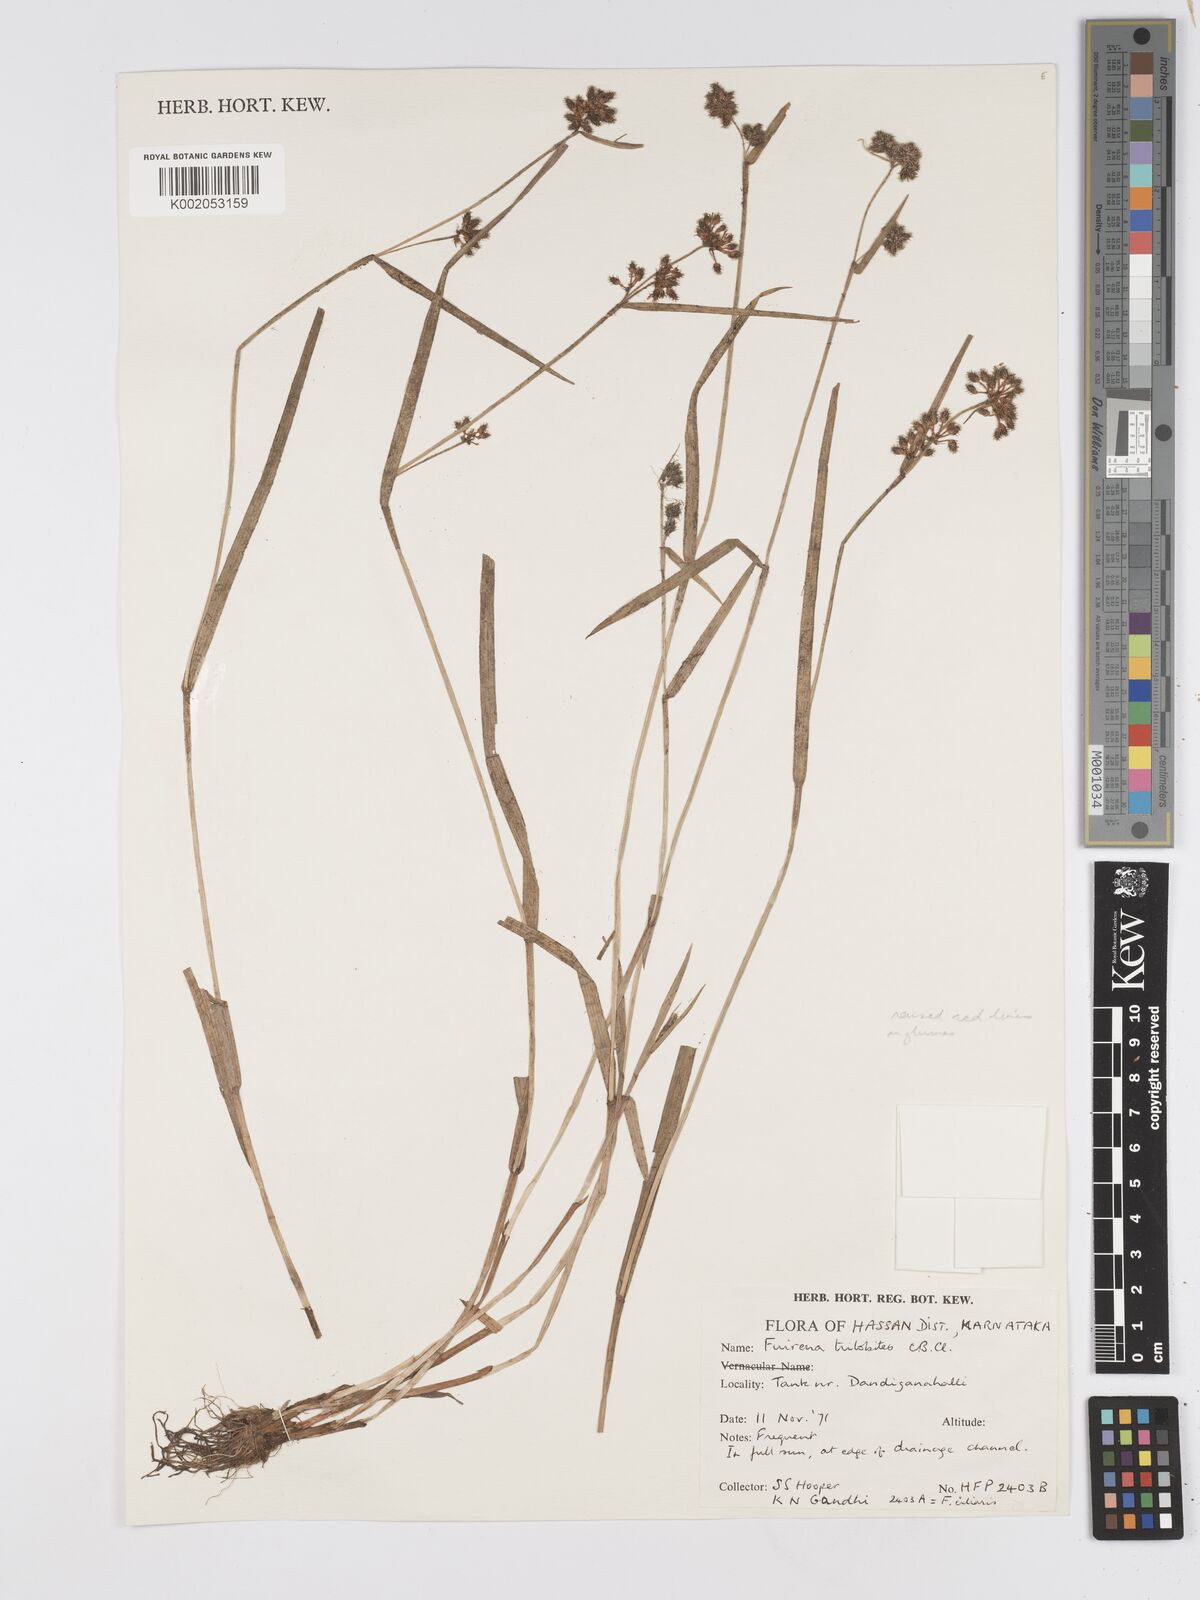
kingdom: Plantae
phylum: Tracheophyta
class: Liliopsida
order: Poales
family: Cyperaceae
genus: Fuirena
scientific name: Fuirena trilobites
